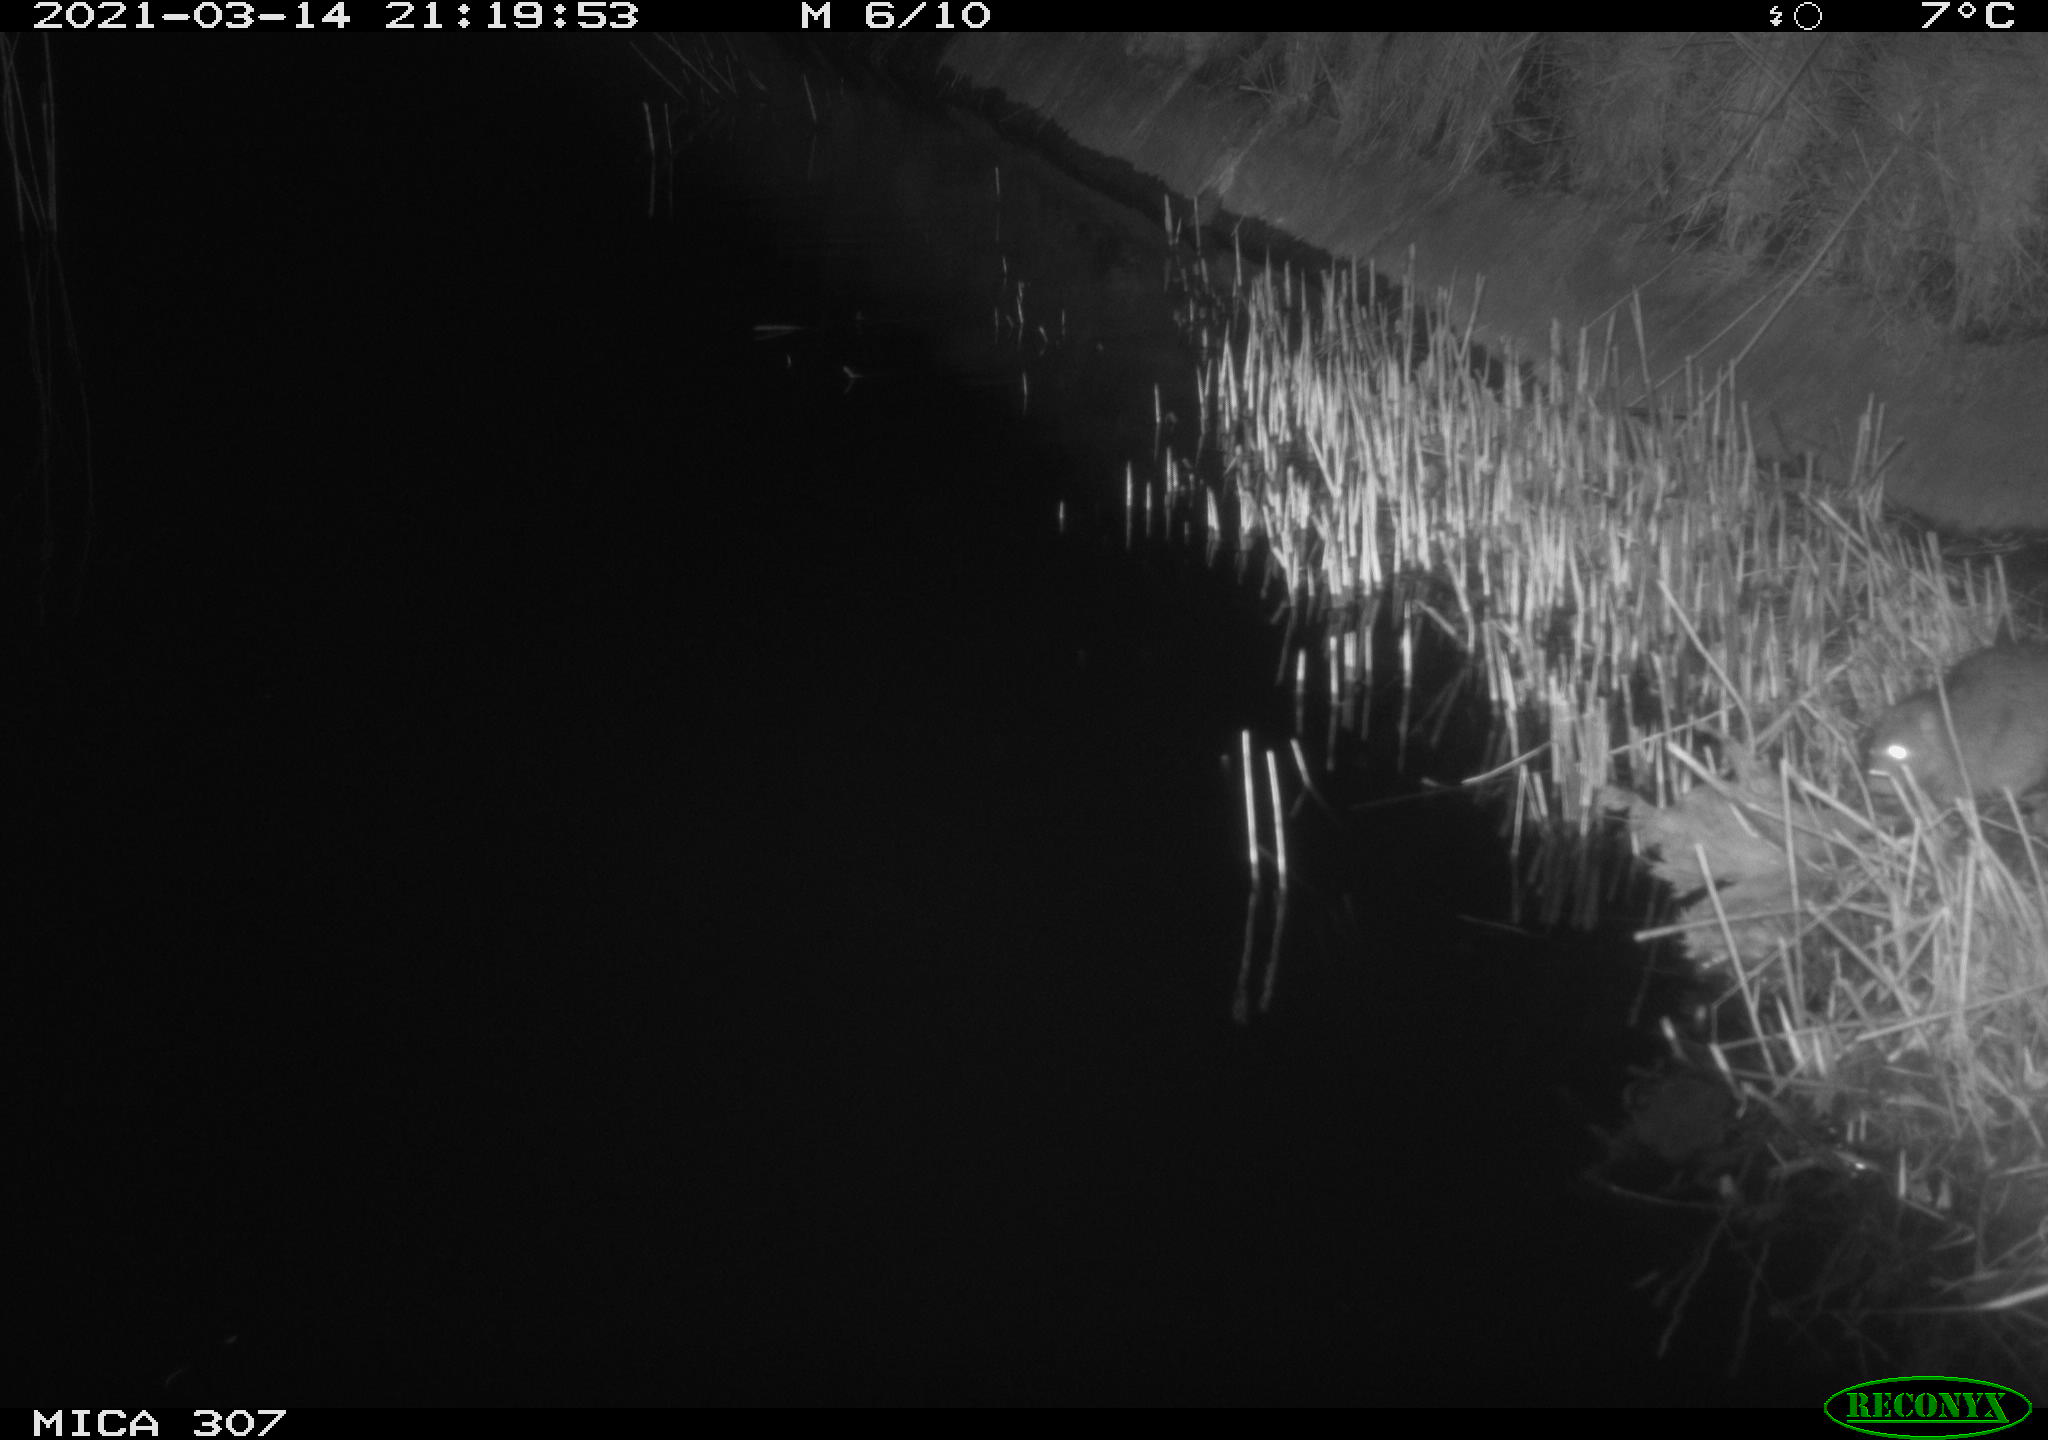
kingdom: Animalia
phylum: Chordata
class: Mammalia
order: Rodentia
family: Muridae
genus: Rattus
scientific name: Rattus norvegicus
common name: Brown rat
